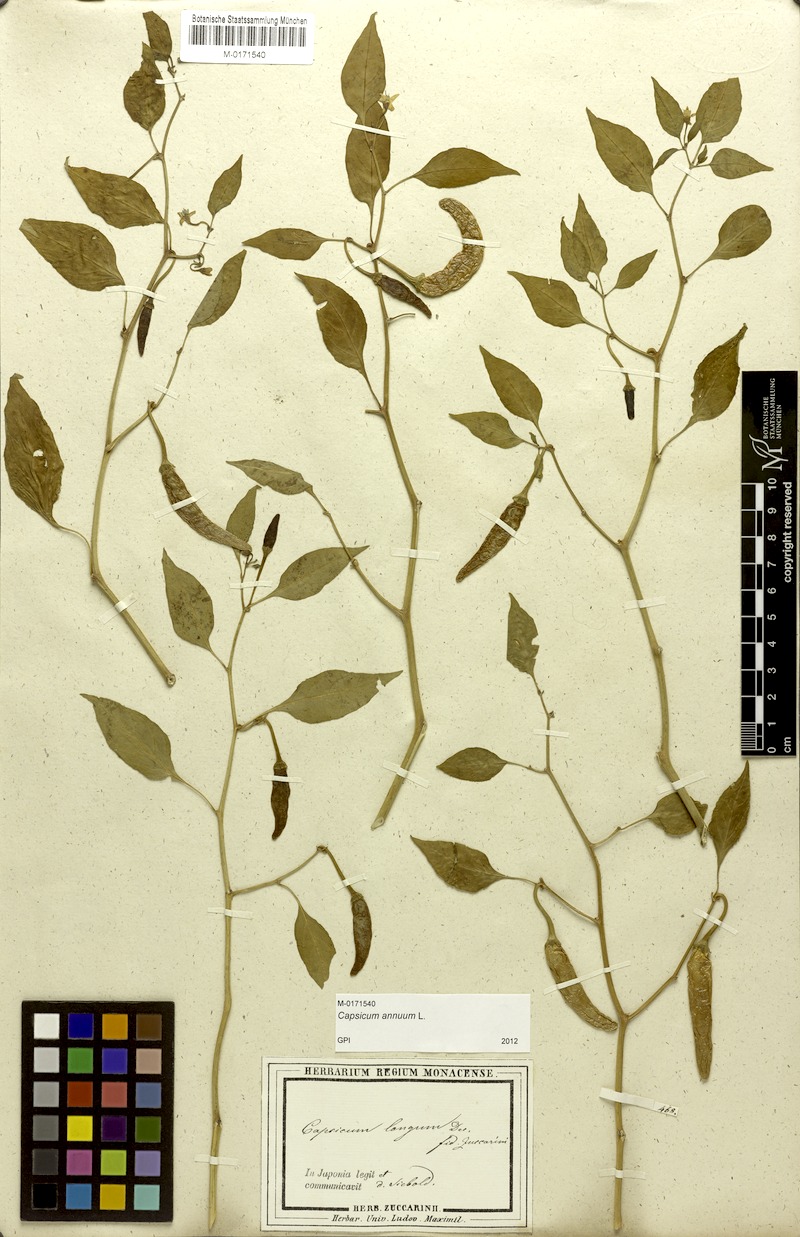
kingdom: Plantae
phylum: Tracheophyta
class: Magnoliopsida
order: Solanales
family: Solanaceae
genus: Capsicum
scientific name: Capsicum annuum
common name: Sweet pepper
